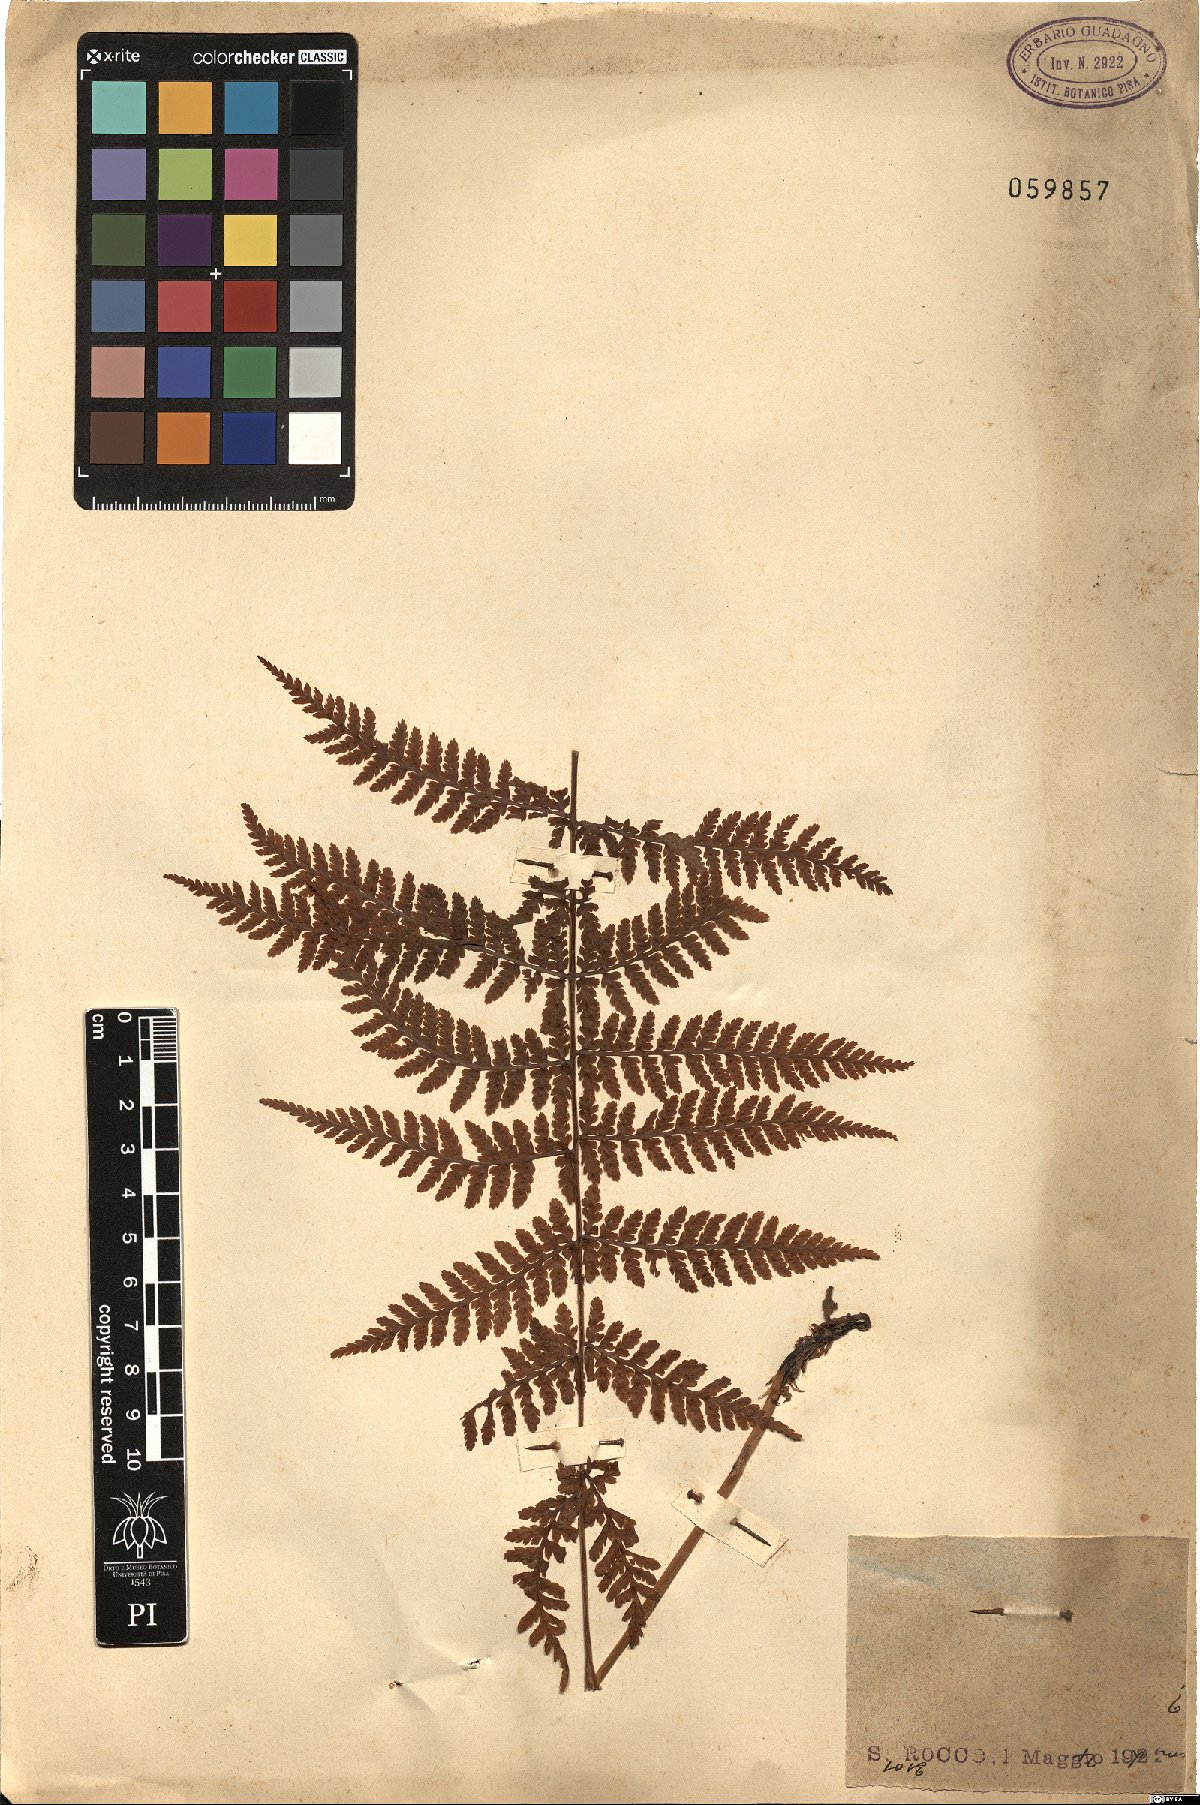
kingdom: Plantae
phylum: Tracheophyta
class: Polypodiopsida
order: Polypodiales
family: Dryopteridaceae
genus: Dryopteris
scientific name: Dryopteris
